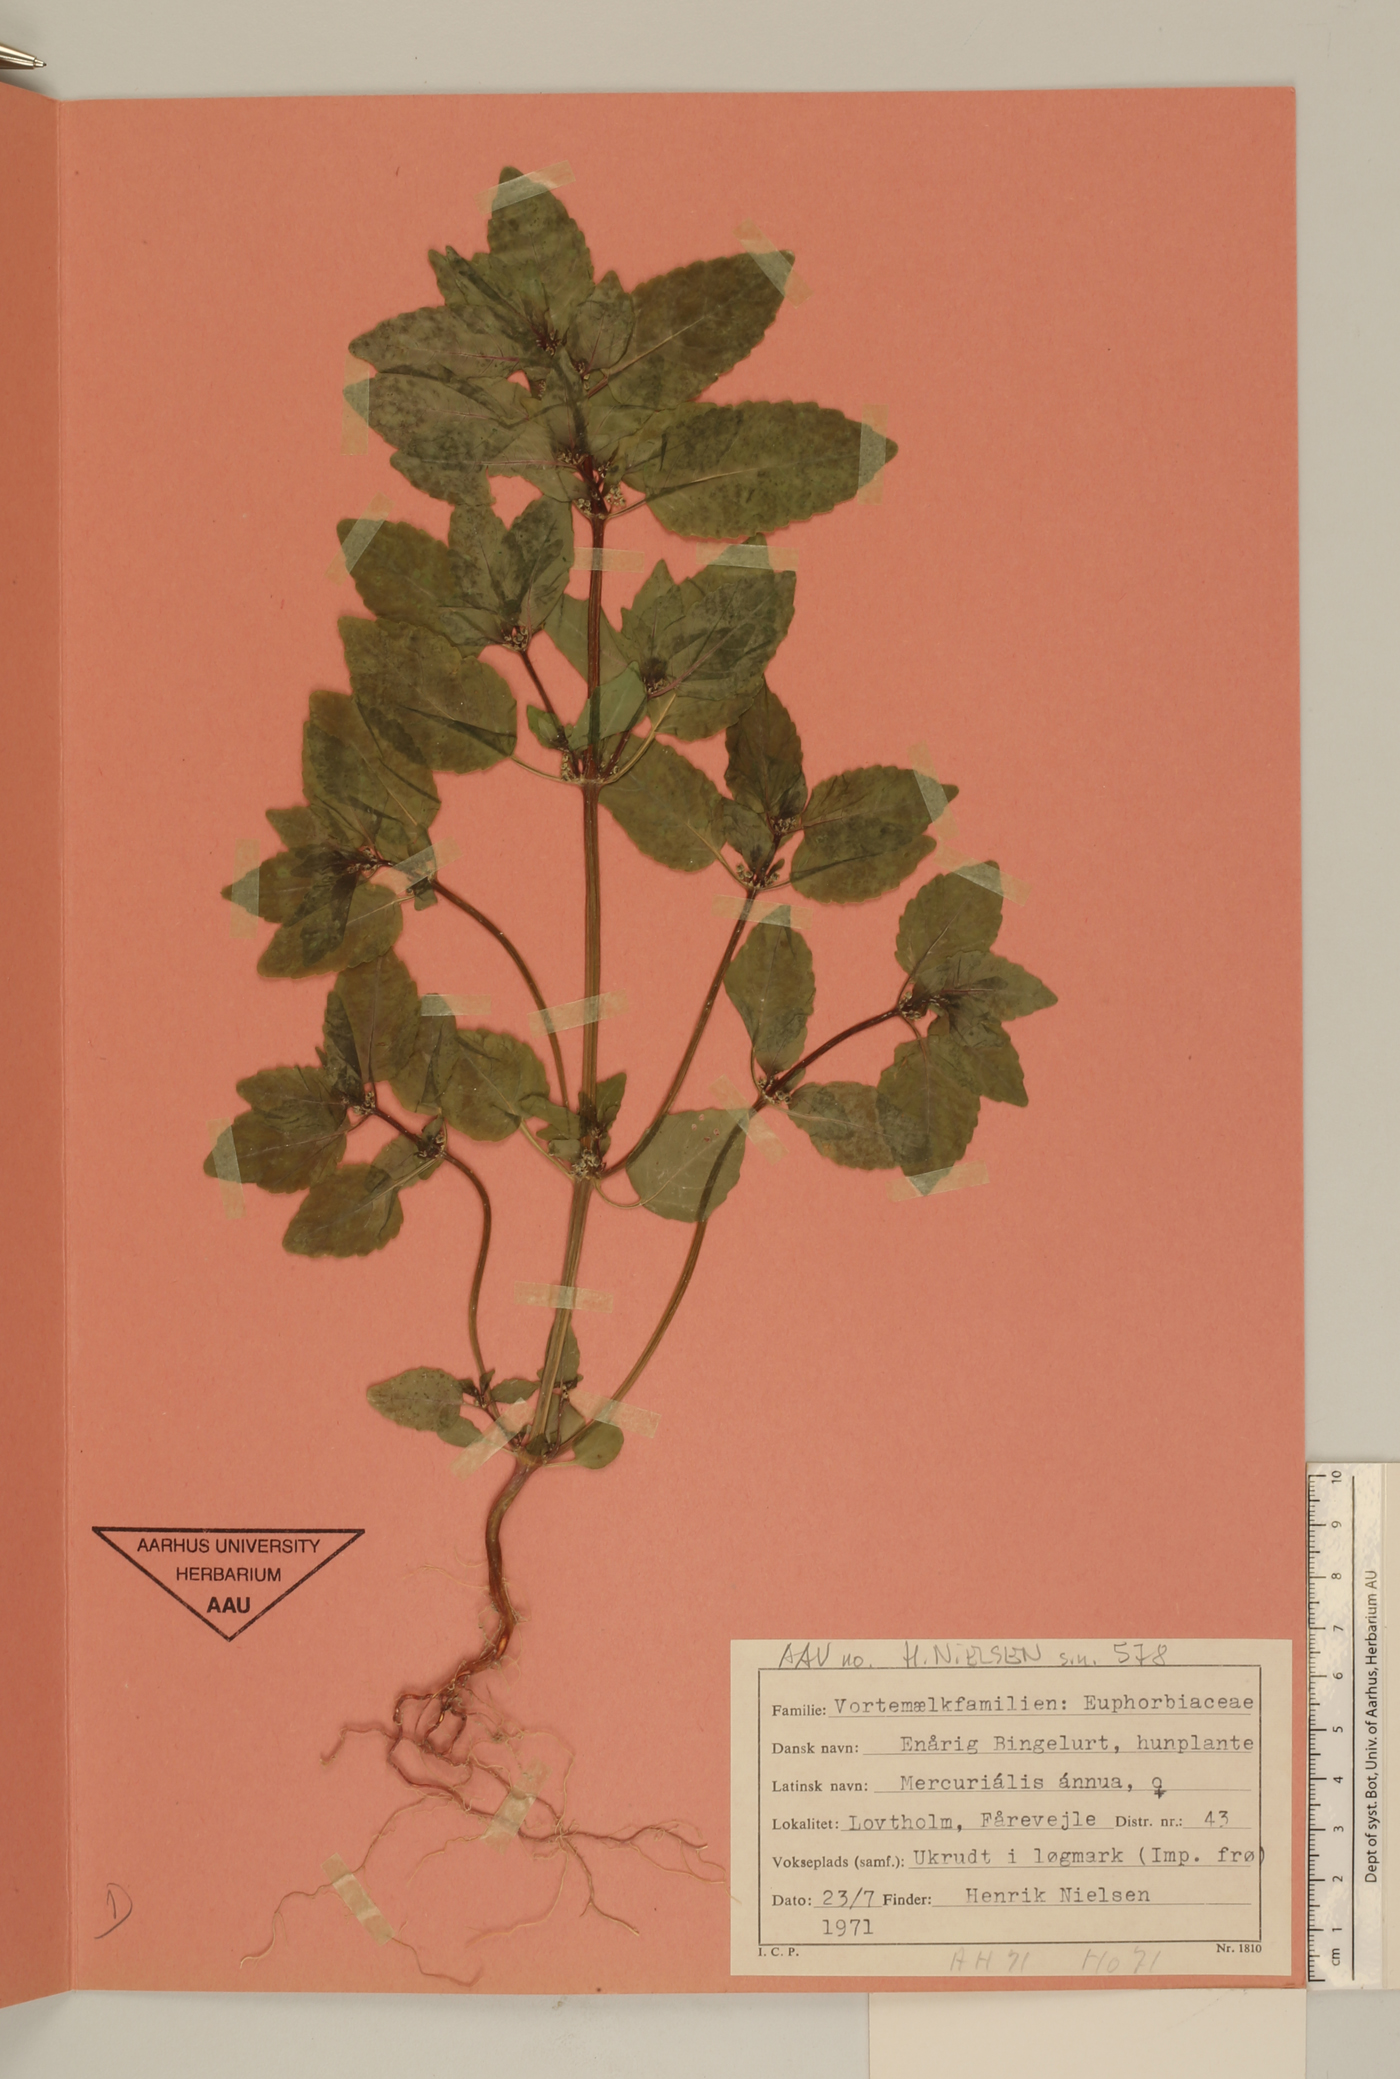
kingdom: Plantae
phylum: Tracheophyta
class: Magnoliopsida
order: Malpighiales
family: Euphorbiaceae
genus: Mercurialis
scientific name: Mercurialis annua
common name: Annual mercury
